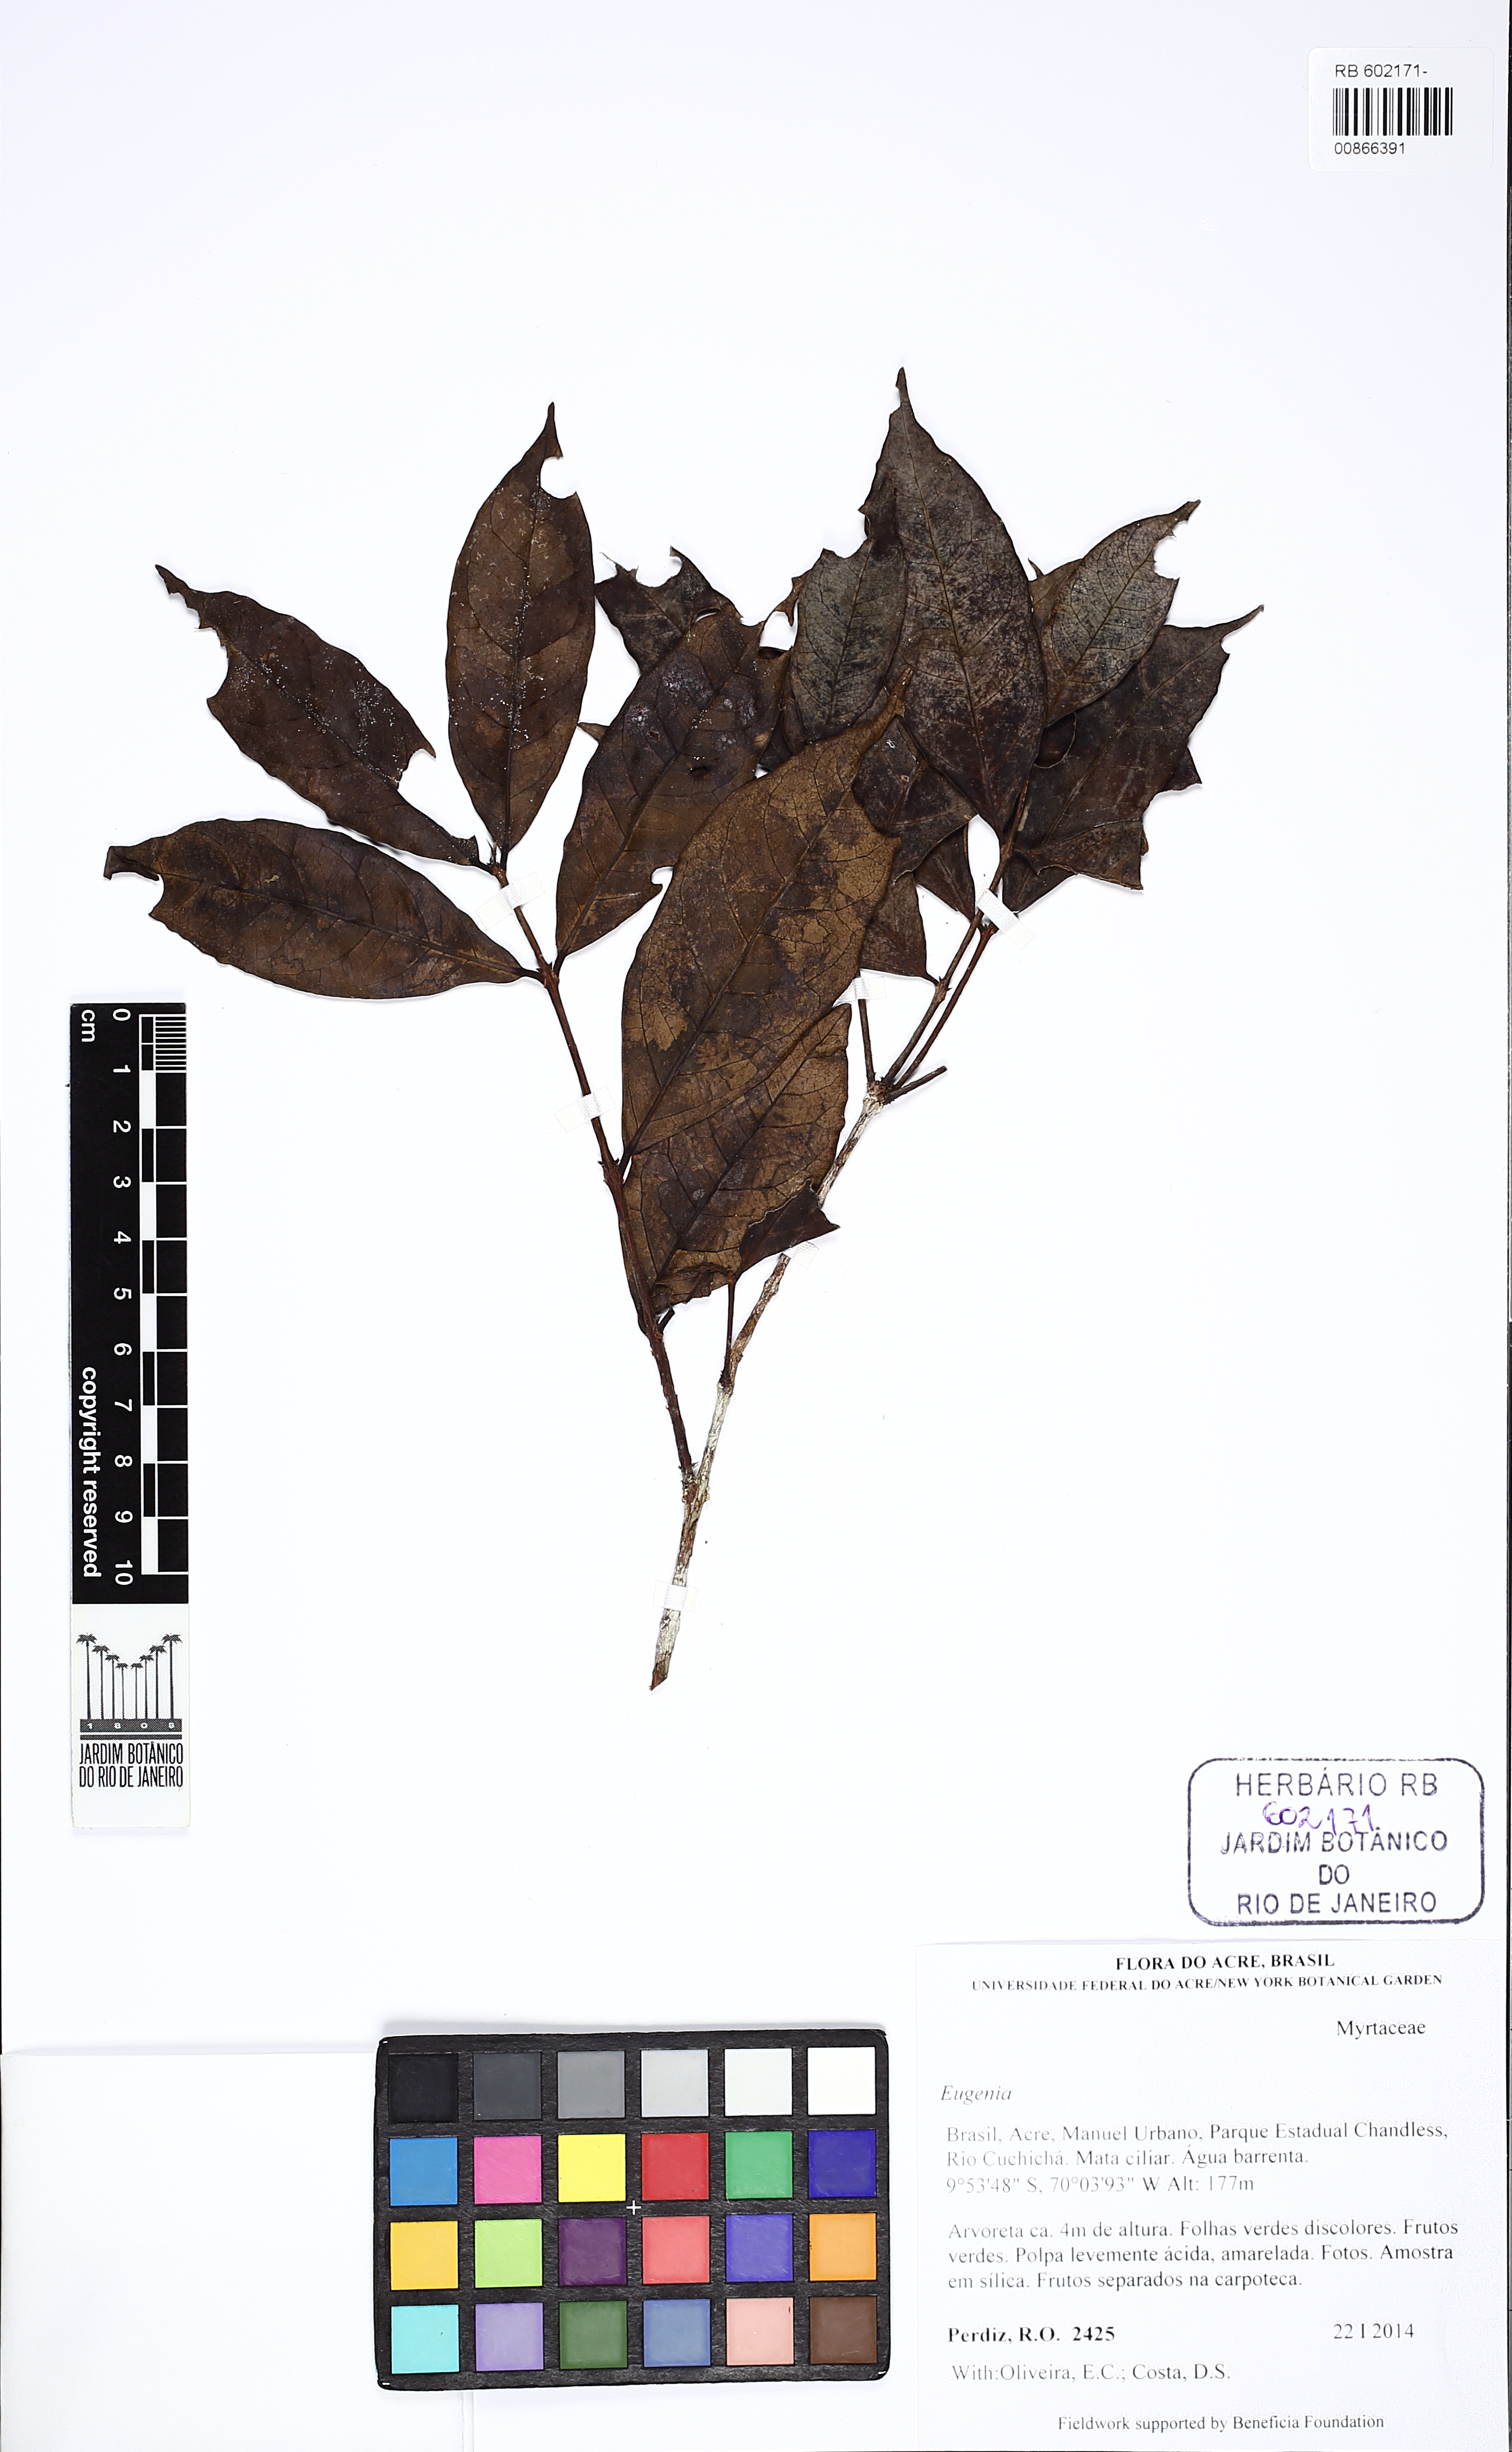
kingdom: Plantae
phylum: Tracheophyta
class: Magnoliopsida
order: Myrtales
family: Myrtaceae
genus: Eugenia
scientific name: Eugenia
